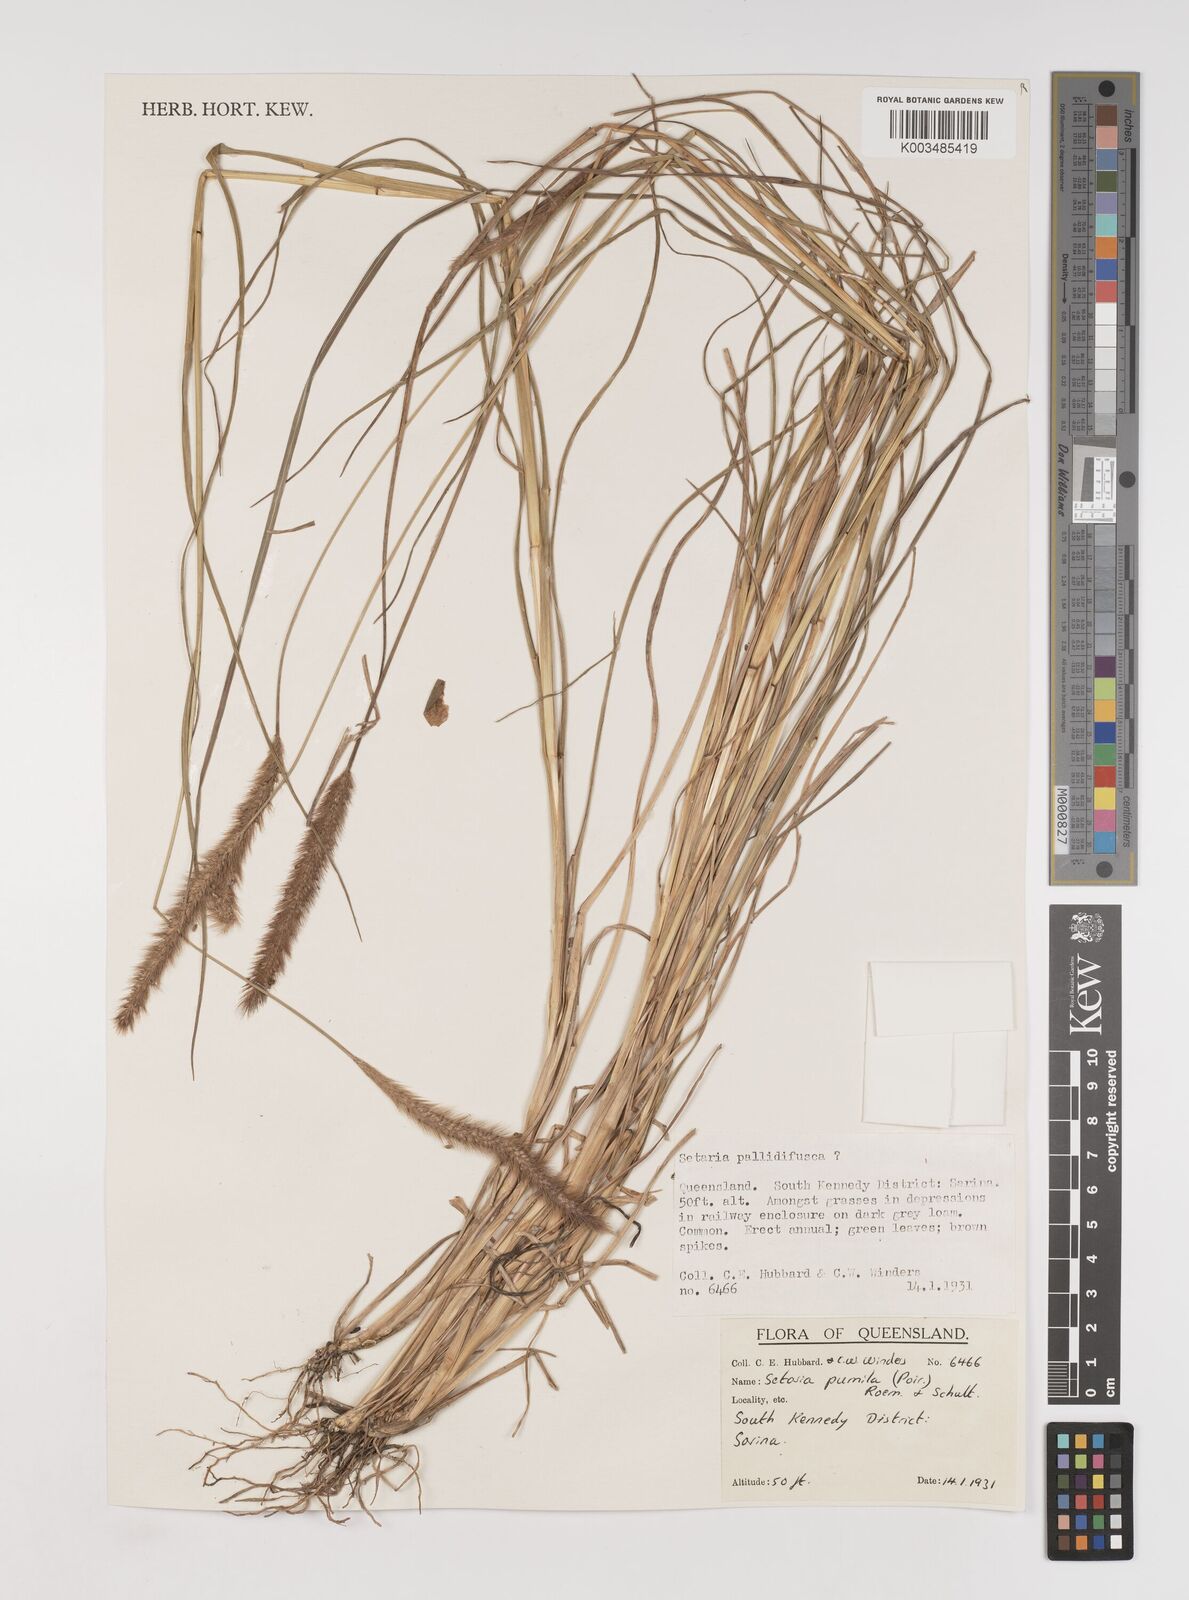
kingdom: Plantae
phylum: Tracheophyta
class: Liliopsida
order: Poales
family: Poaceae
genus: Setaria
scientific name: Setaria pumila
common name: Yellow bristle-grass
